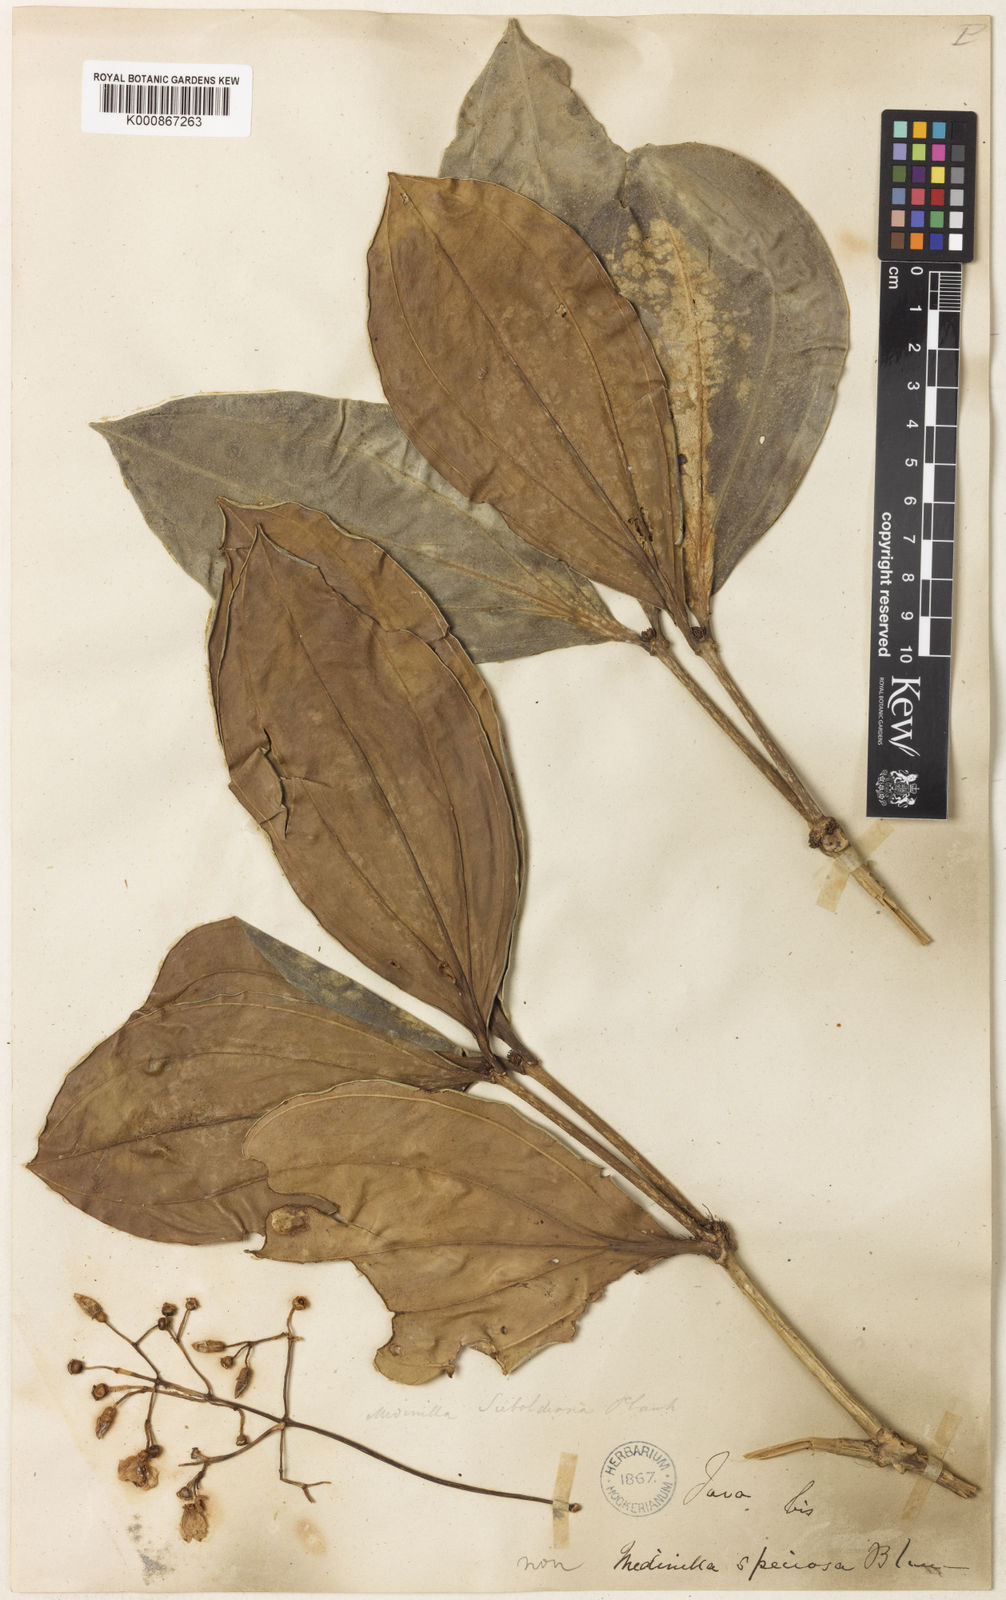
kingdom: Plantae
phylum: Tracheophyta
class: Magnoliopsida
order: Myrtales
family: Melastomataceae
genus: Medinilla
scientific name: Medinilla intermedia
